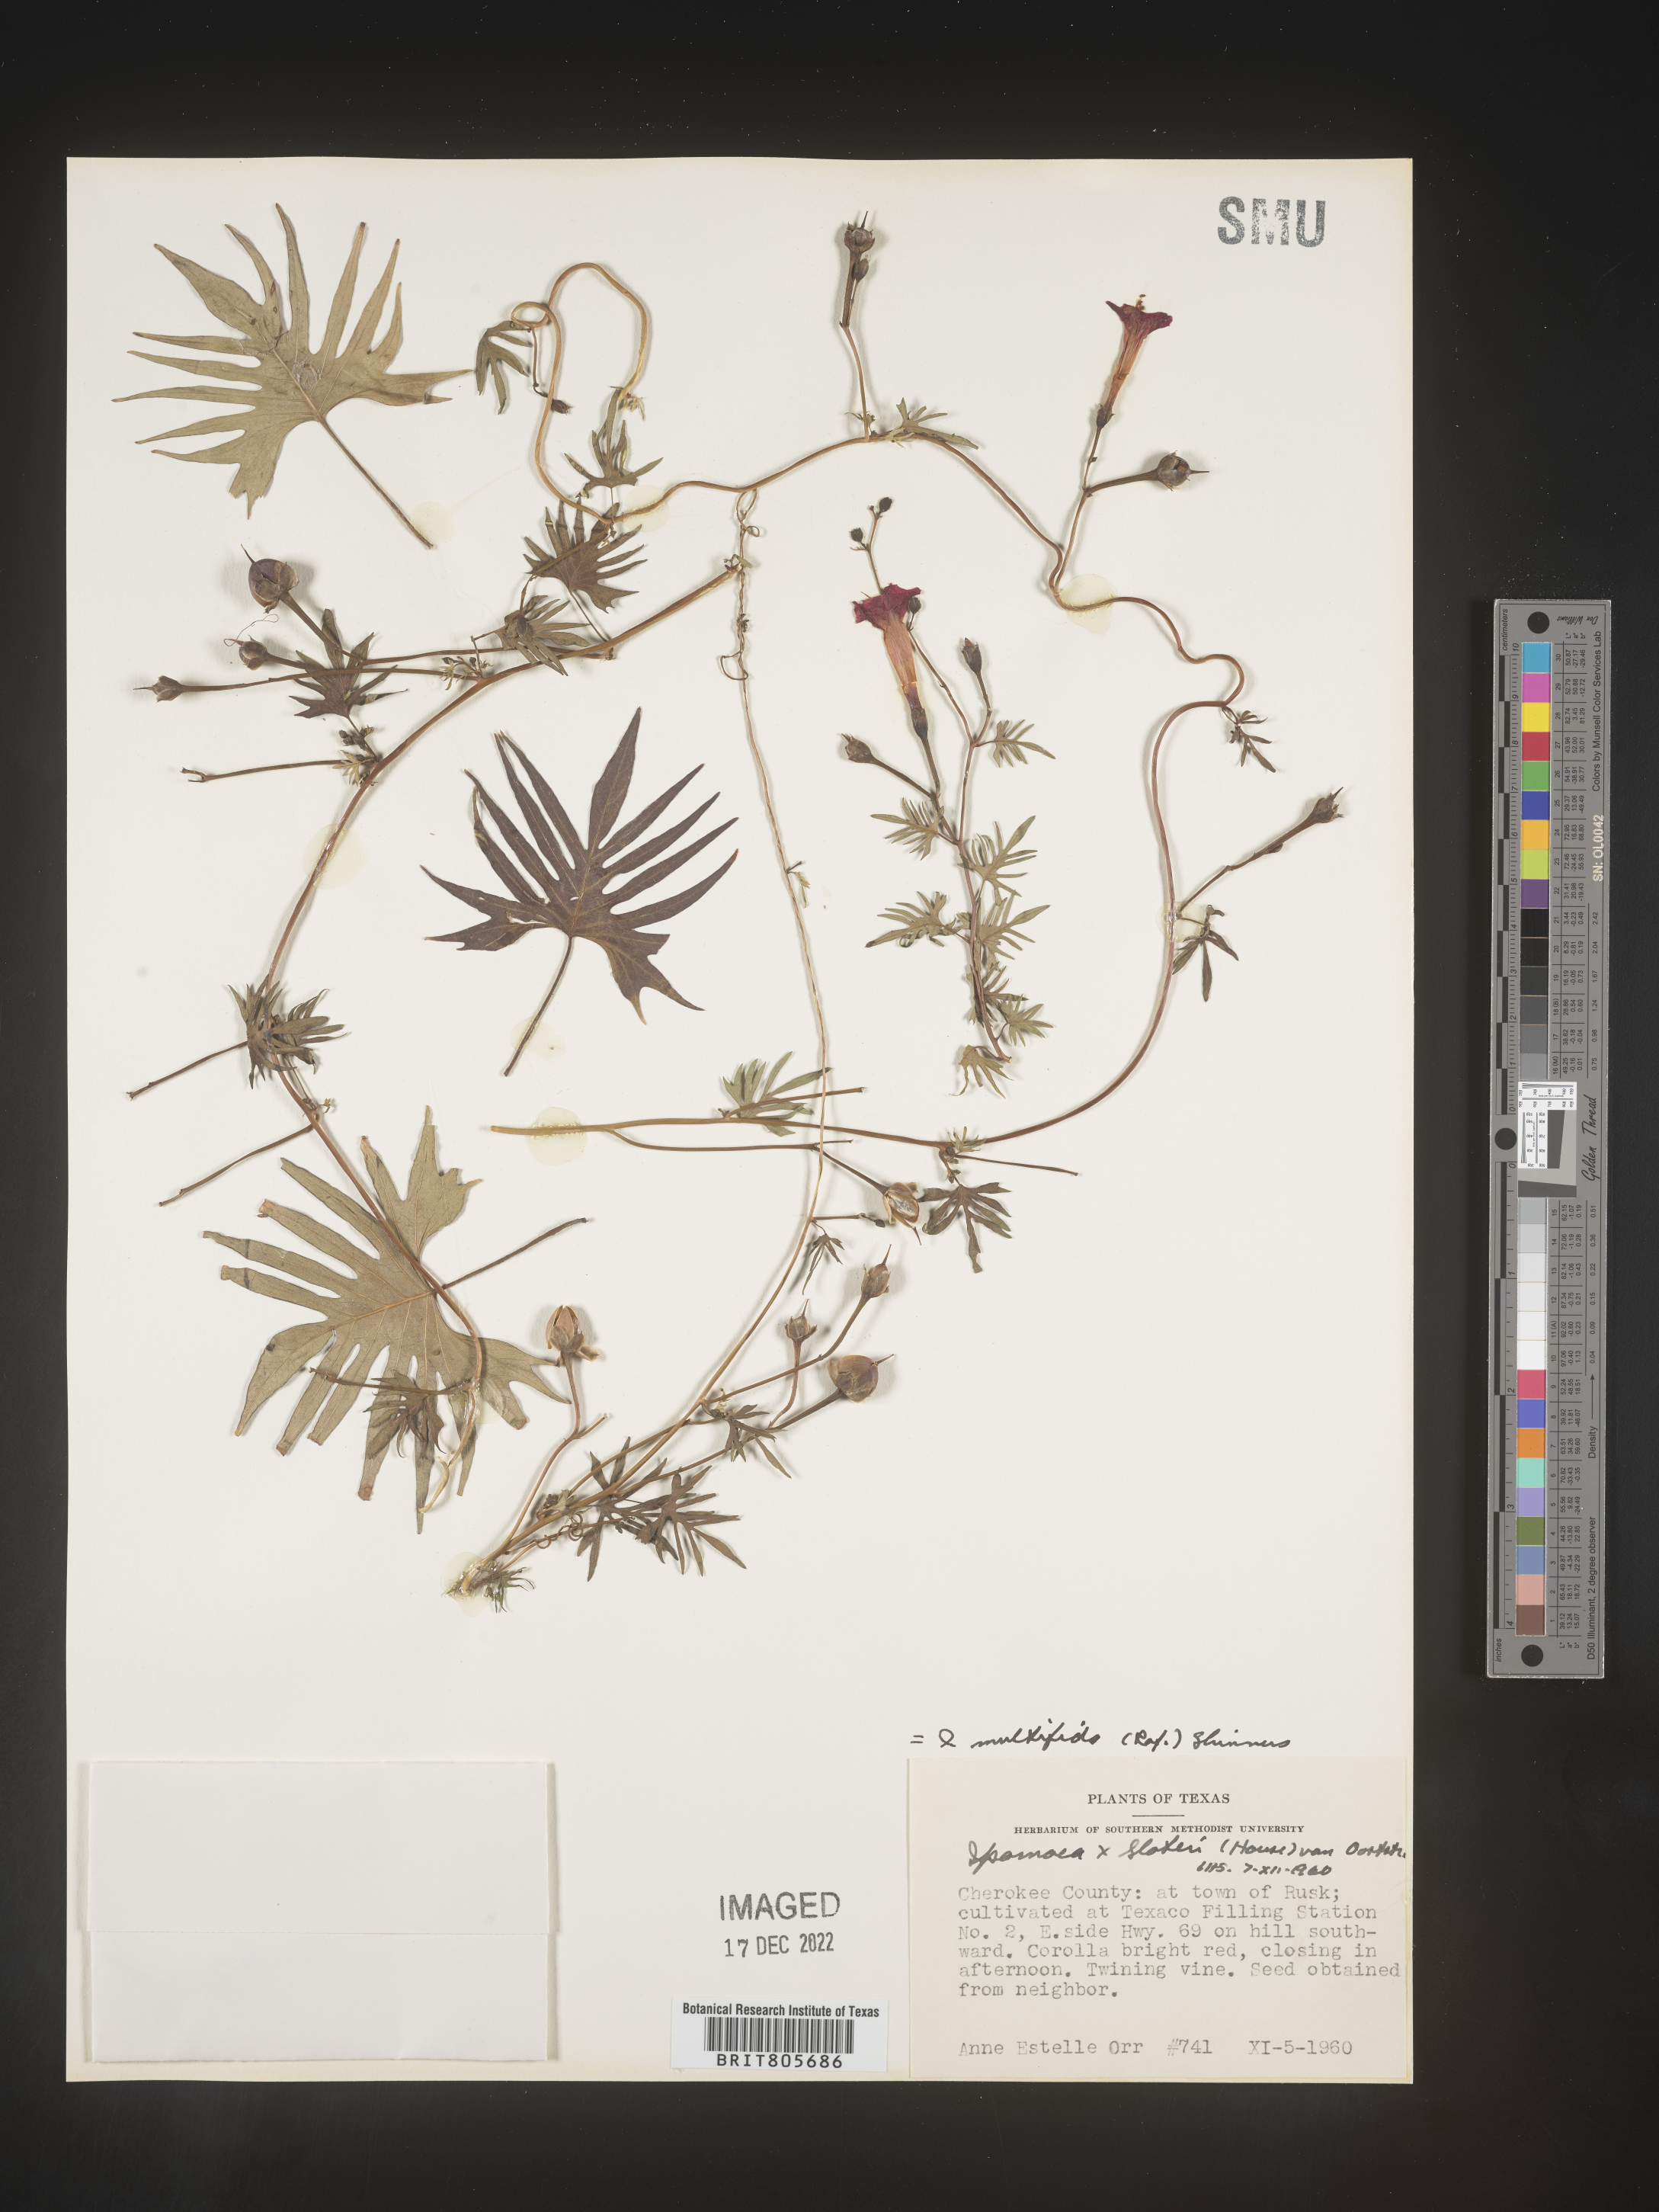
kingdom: Plantae
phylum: Tracheophyta
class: Magnoliopsida
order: Solanales
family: Convolvulaceae
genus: Ipomoea
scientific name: Ipomoea
